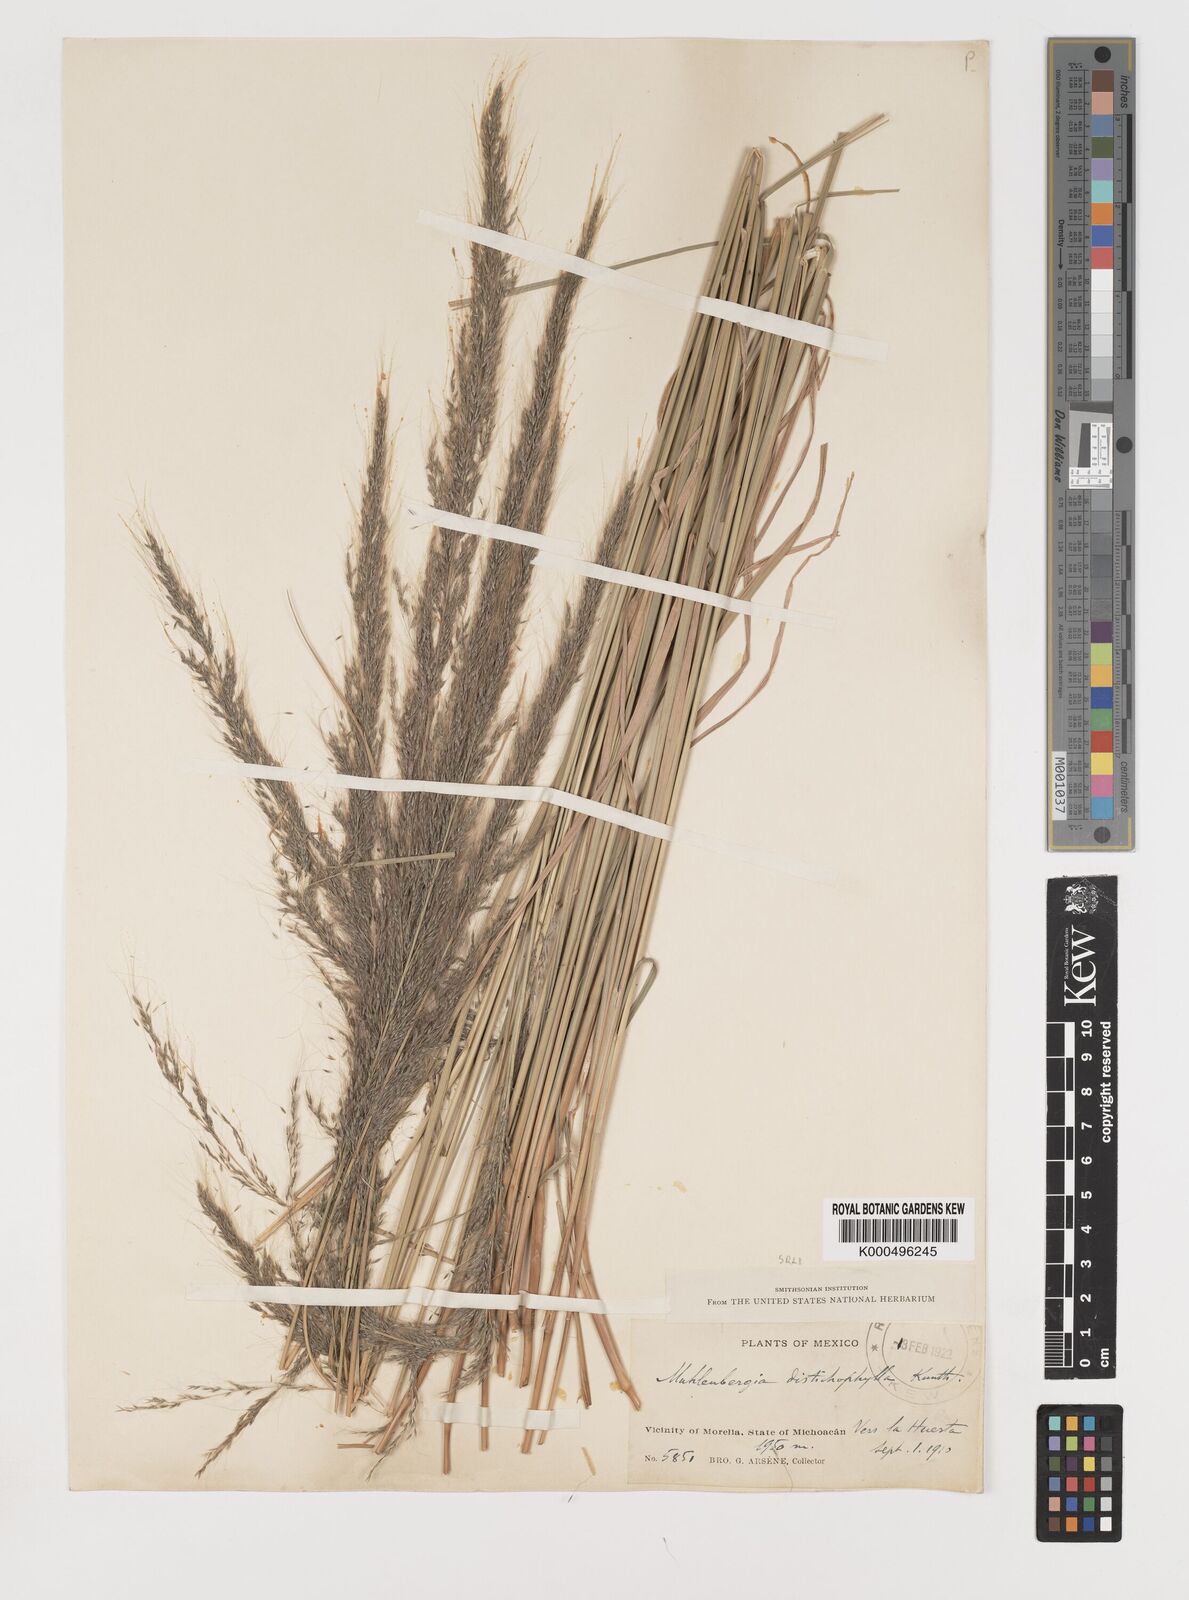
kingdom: Plantae
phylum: Tracheophyta
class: Liliopsida
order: Poales
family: Poaceae
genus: Muhlenbergia
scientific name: Muhlenbergia
